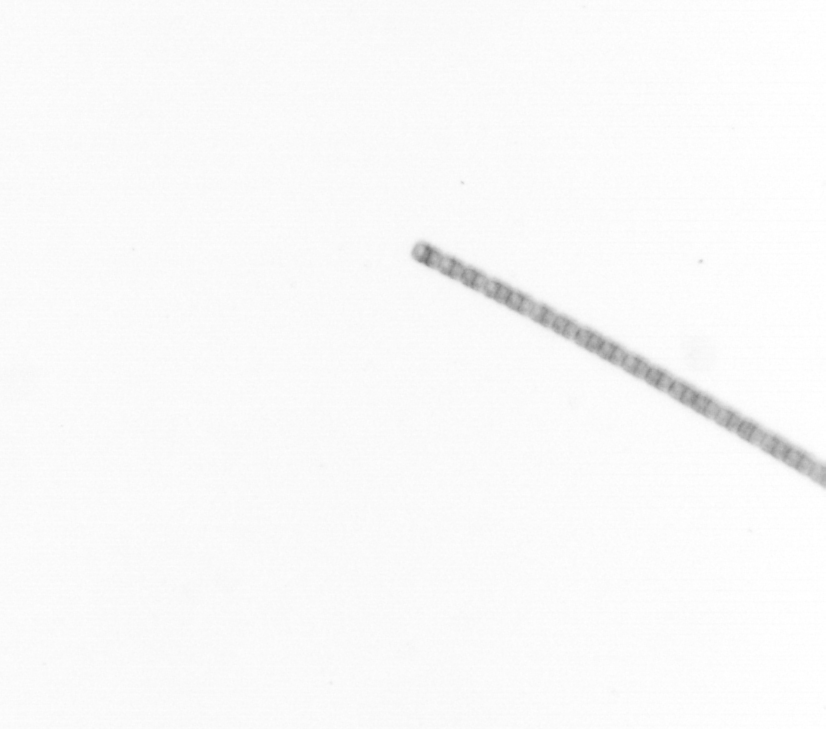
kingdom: Chromista
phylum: Ochrophyta
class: Bacillariophyceae
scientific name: Bacillariophyceae
